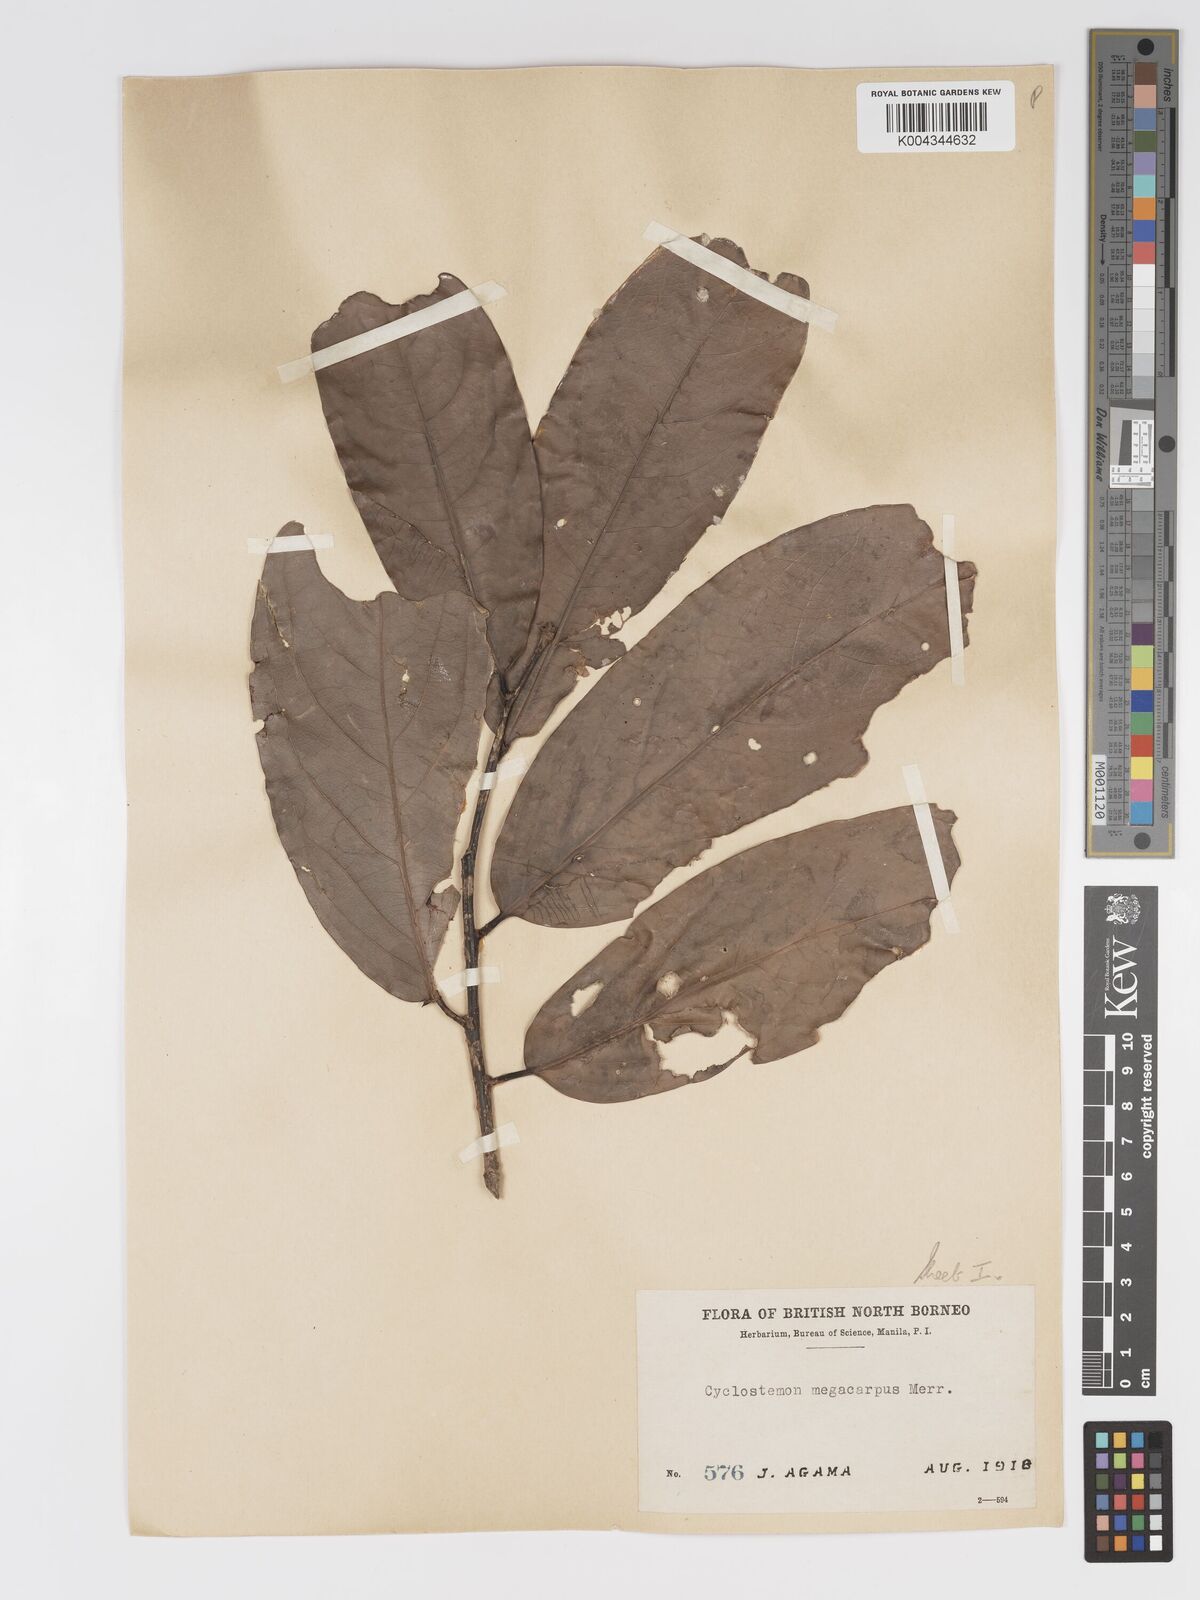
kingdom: Plantae
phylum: Tracheophyta
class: Magnoliopsida
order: Malpighiales
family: Putranjivaceae
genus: Drypetes
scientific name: Drypetes longifolia
